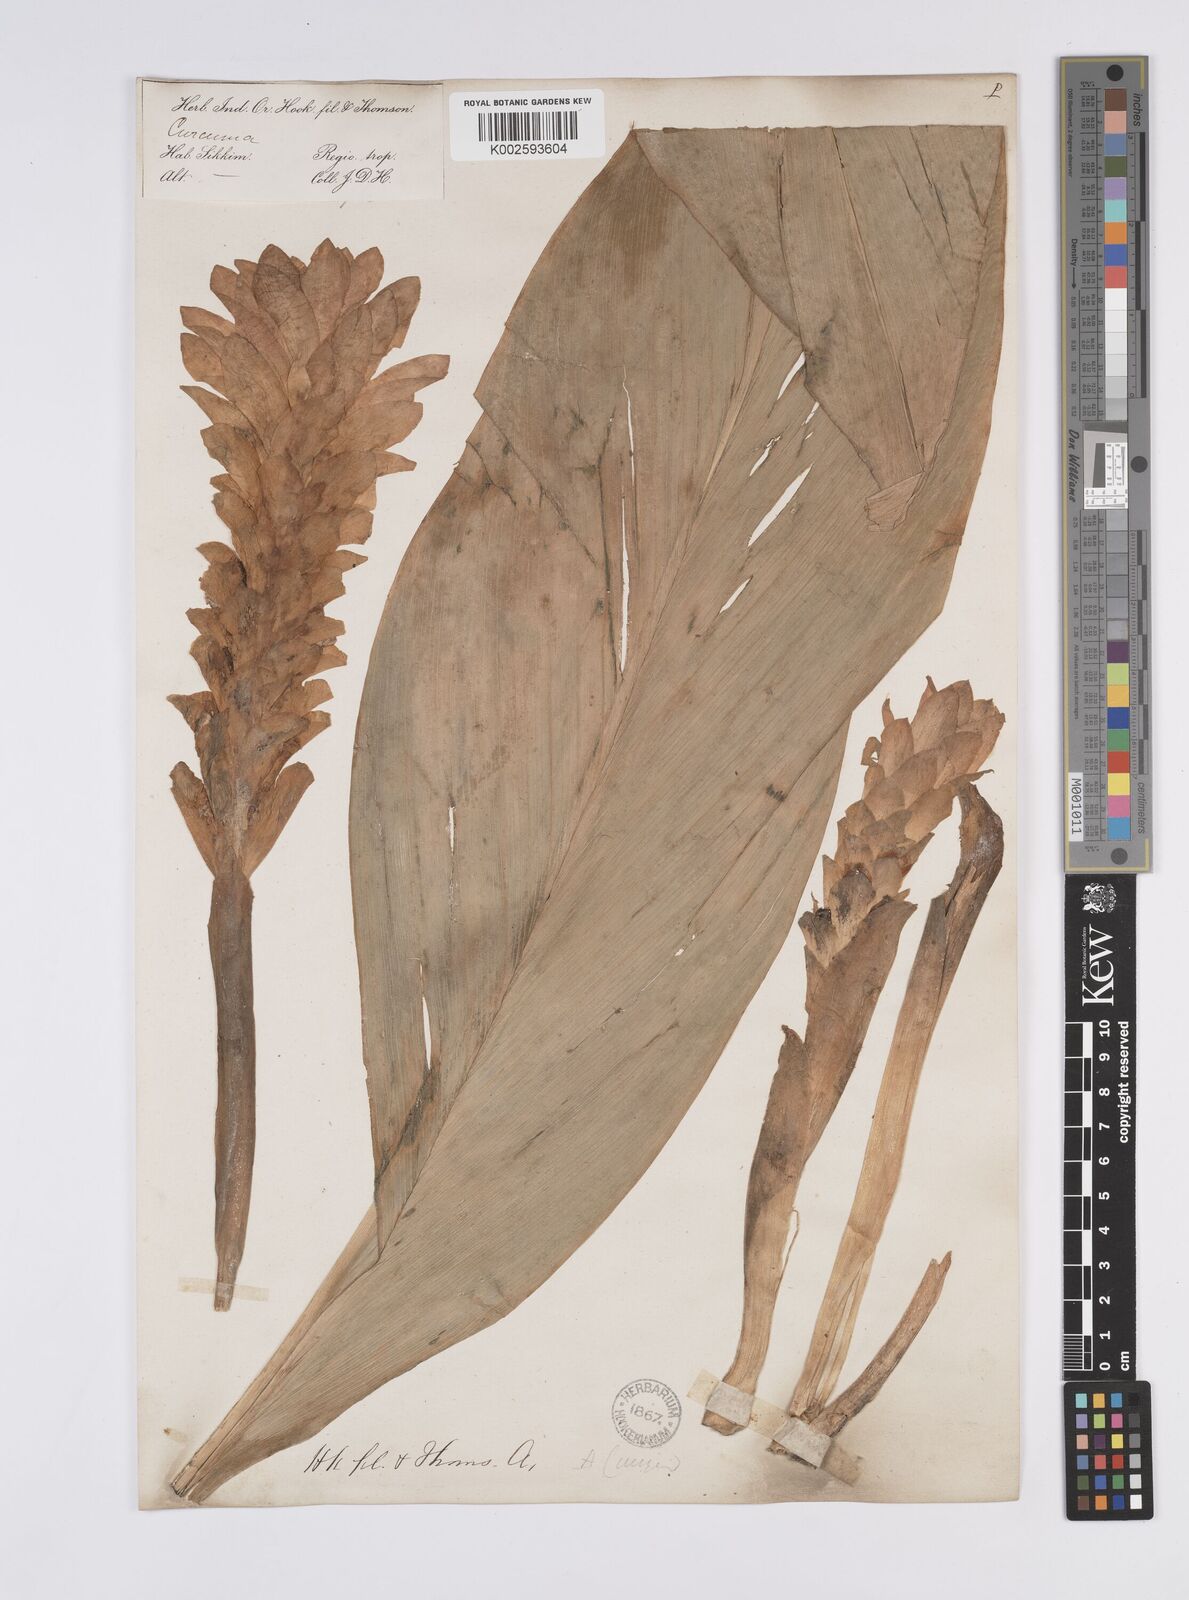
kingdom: Plantae
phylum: Tracheophyta
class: Liliopsida
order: Zingiberales
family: Zingiberaceae
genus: Curcuma
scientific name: Curcuma aromatica
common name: Wild turmeric
